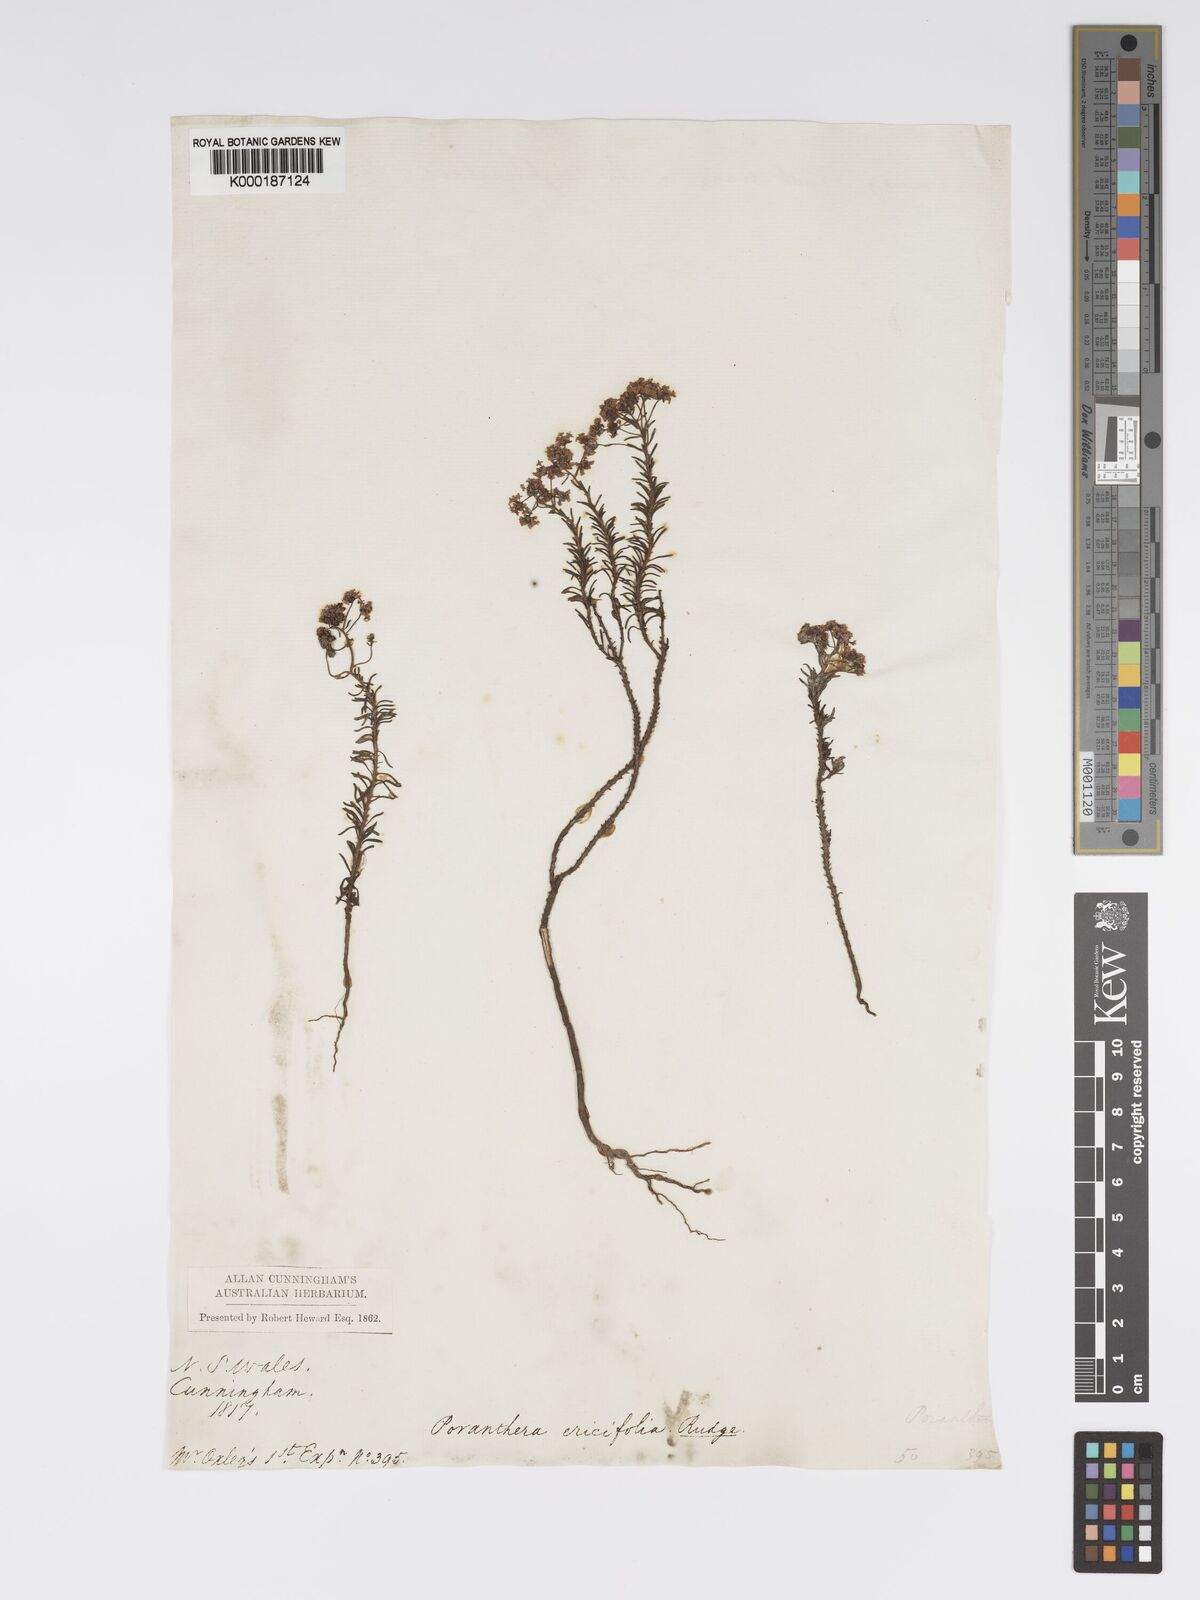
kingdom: Plantae
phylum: Tracheophyta
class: Magnoliopsida
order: Malpighiales
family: Phyllanthaceae
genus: Poranthera
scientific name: Poranthera ericifolia
